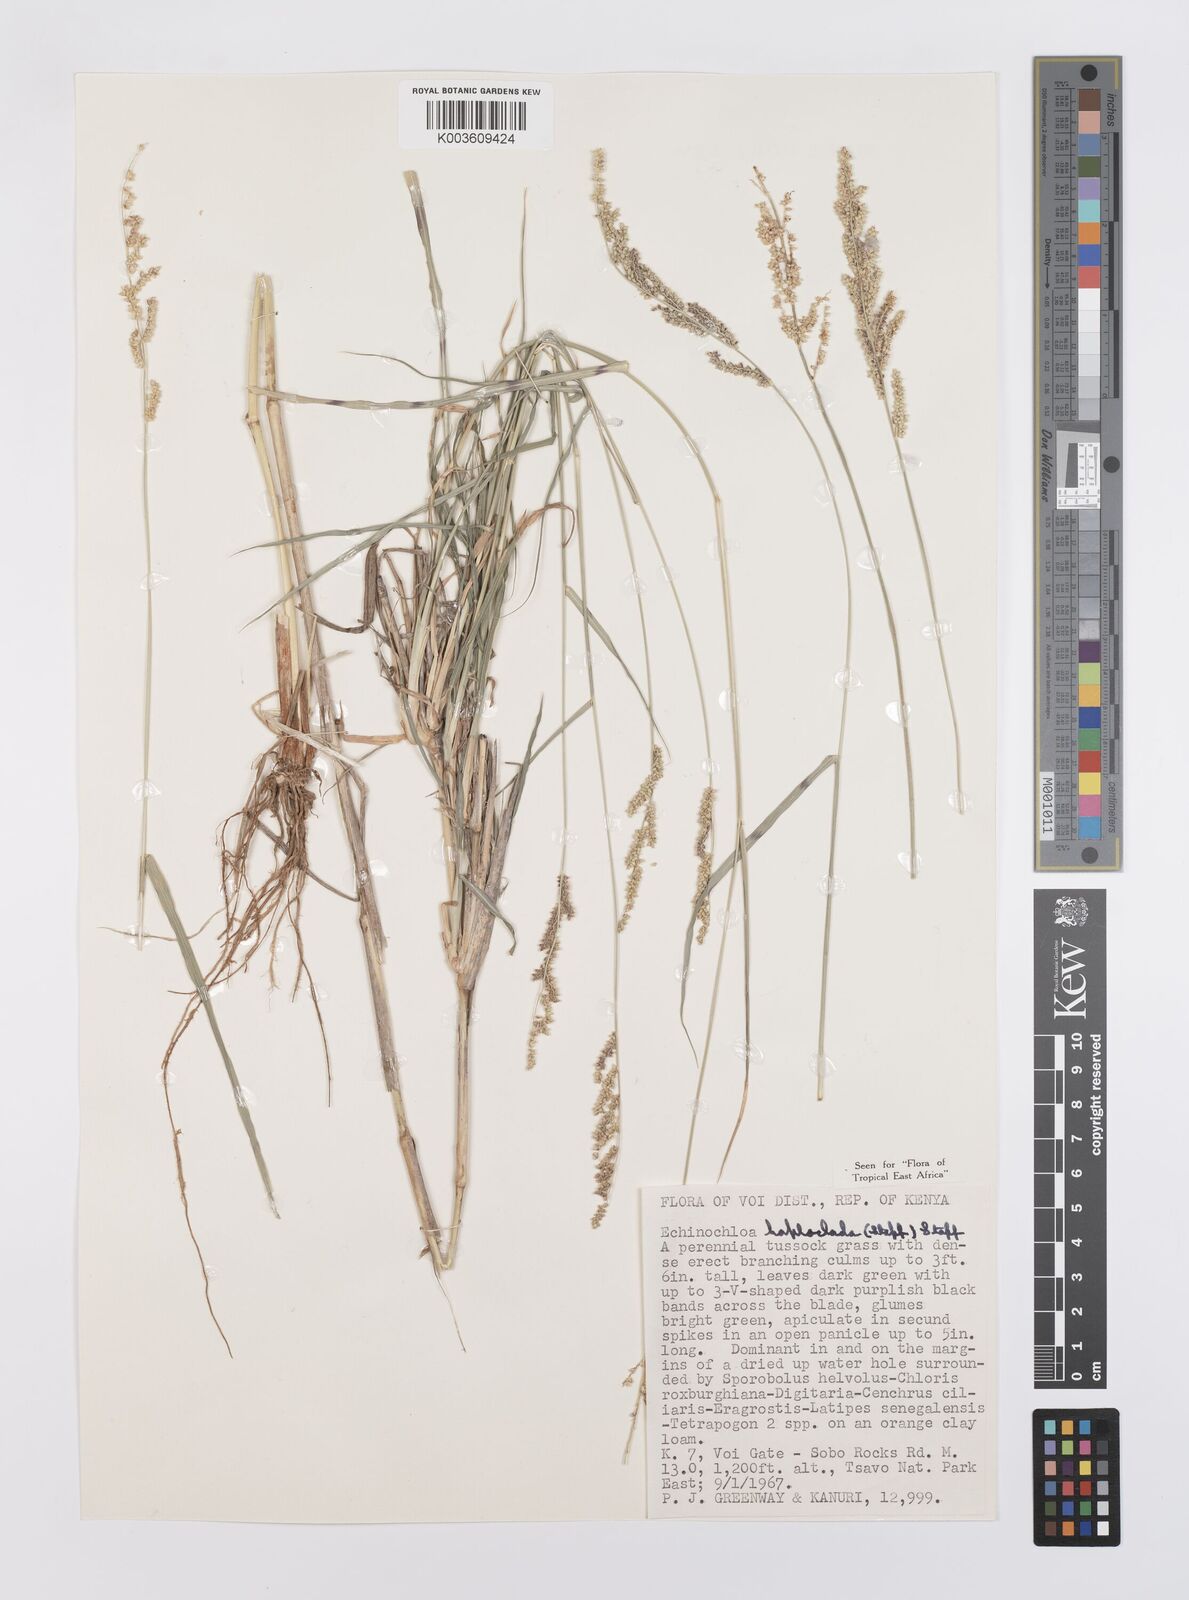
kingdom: Plantae
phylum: Tracheophyta
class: Liliopsida
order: Poales
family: Poaceae
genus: Echinochloa
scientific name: Echinochloa haploclada
